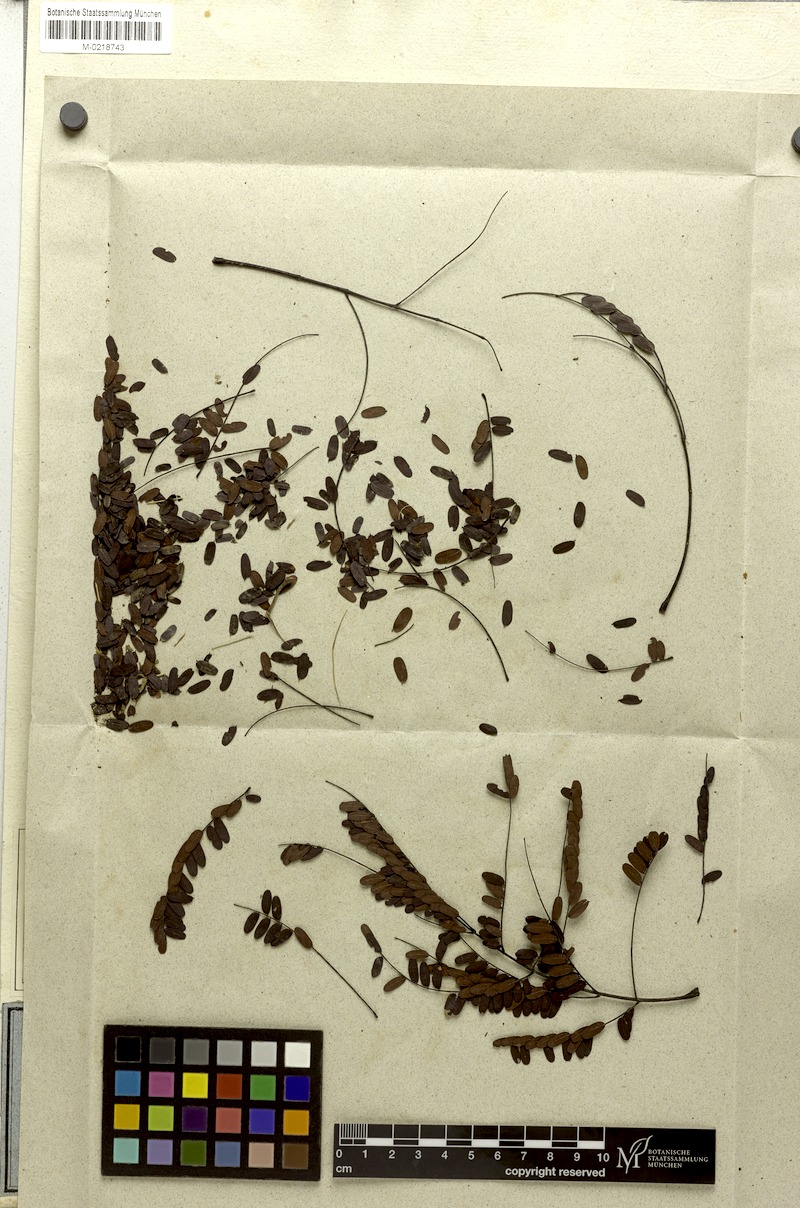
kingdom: Plantae
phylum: Tracheophyta
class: Magnoliopsida
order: Fabales
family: Fabaceae
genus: Plathymenia
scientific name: Plathymenia reticulata
